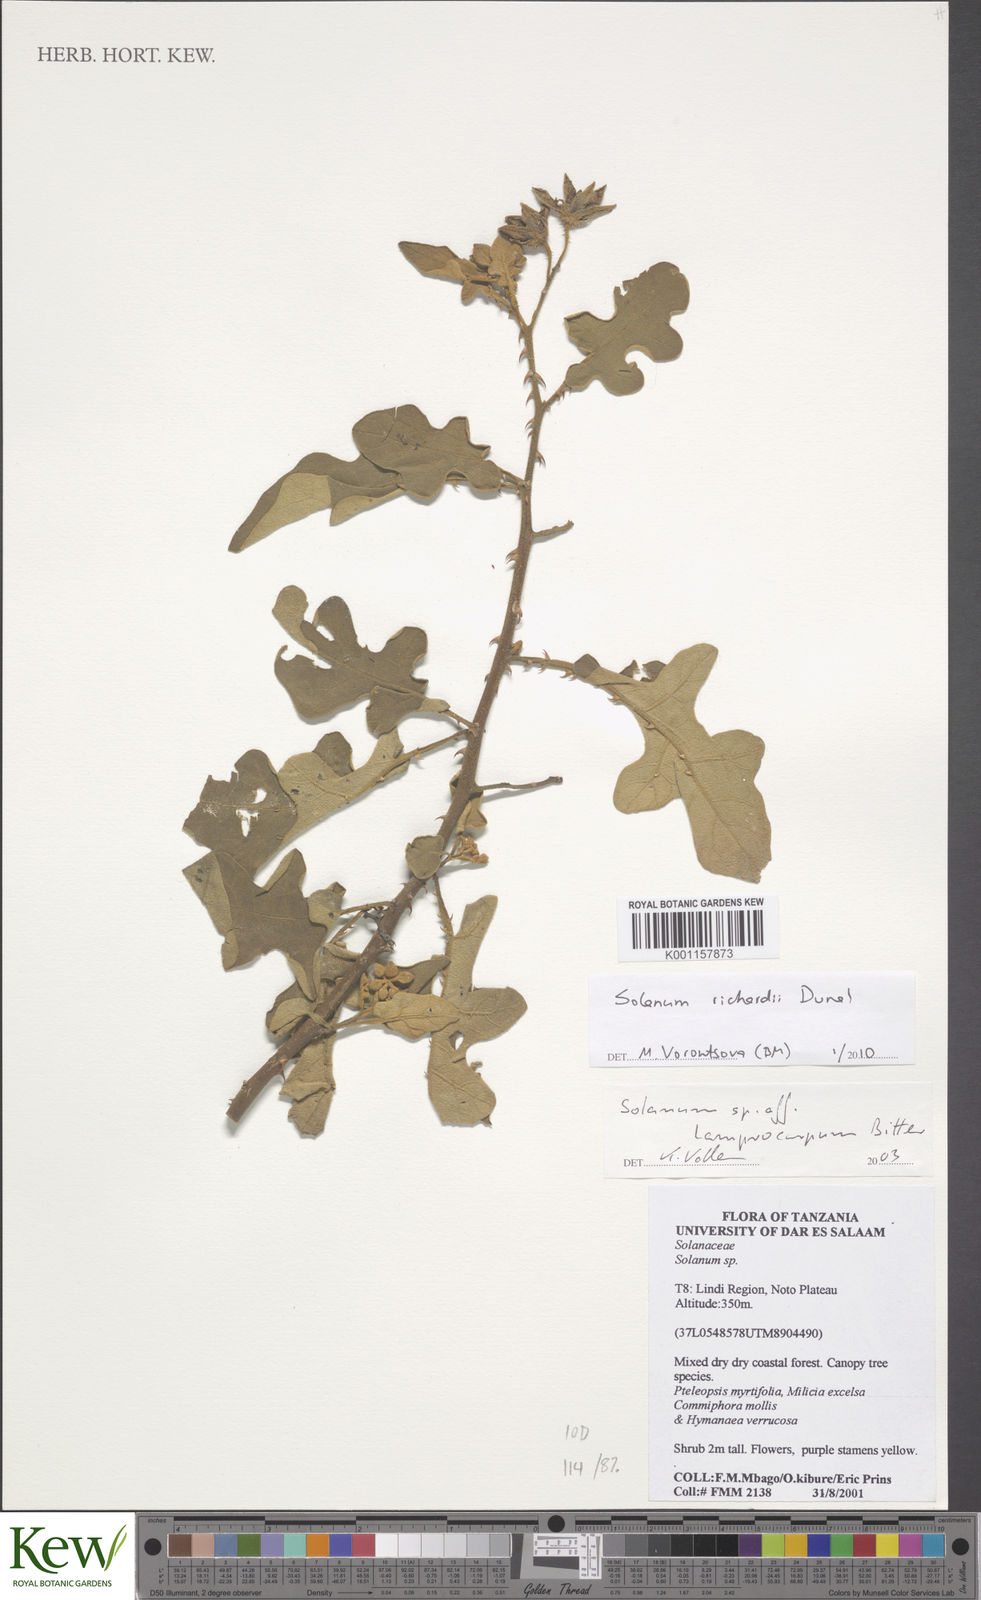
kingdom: Plantae
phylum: Tracheophyta
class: Magnoliopsida
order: Solanales
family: Solanaceae
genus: Solanum
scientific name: Solanum richardii
